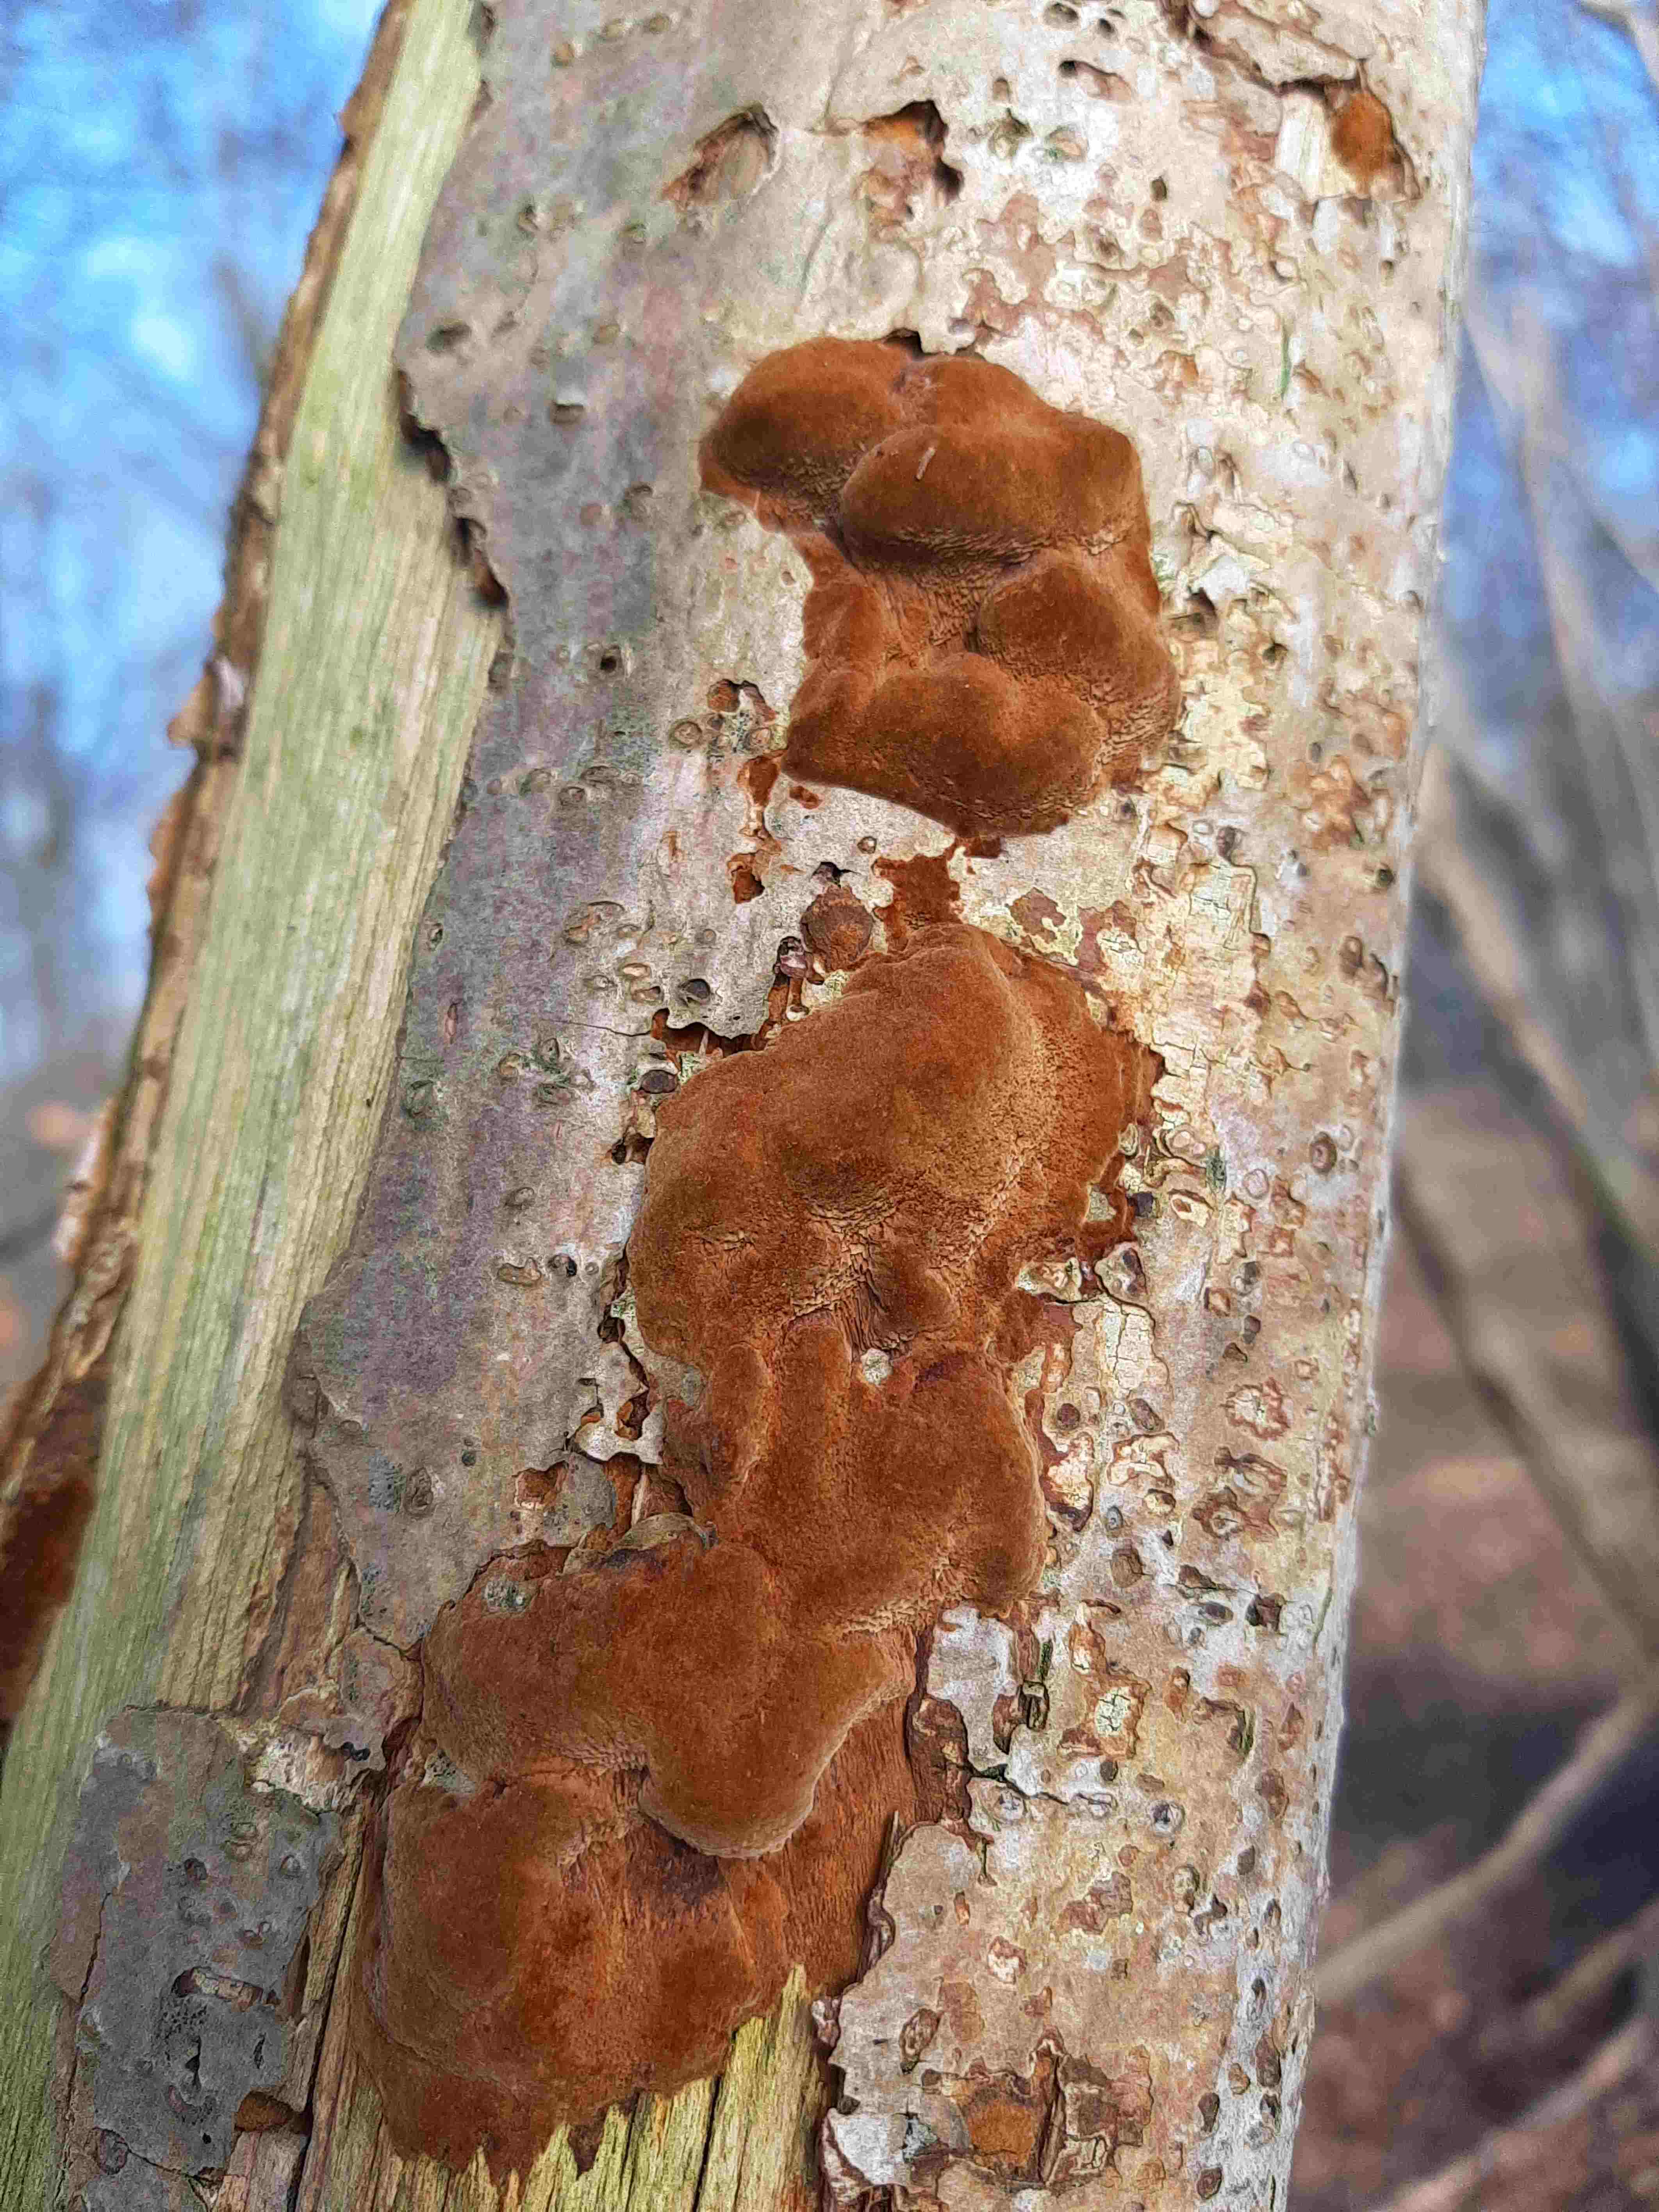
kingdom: Fungi
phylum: Basidiomycota
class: Agaricomycetes
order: Hymenochaetales
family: Hymenochaetaceae
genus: Fuscoporia
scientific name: Fuscoporia
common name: Ildporesvamp
